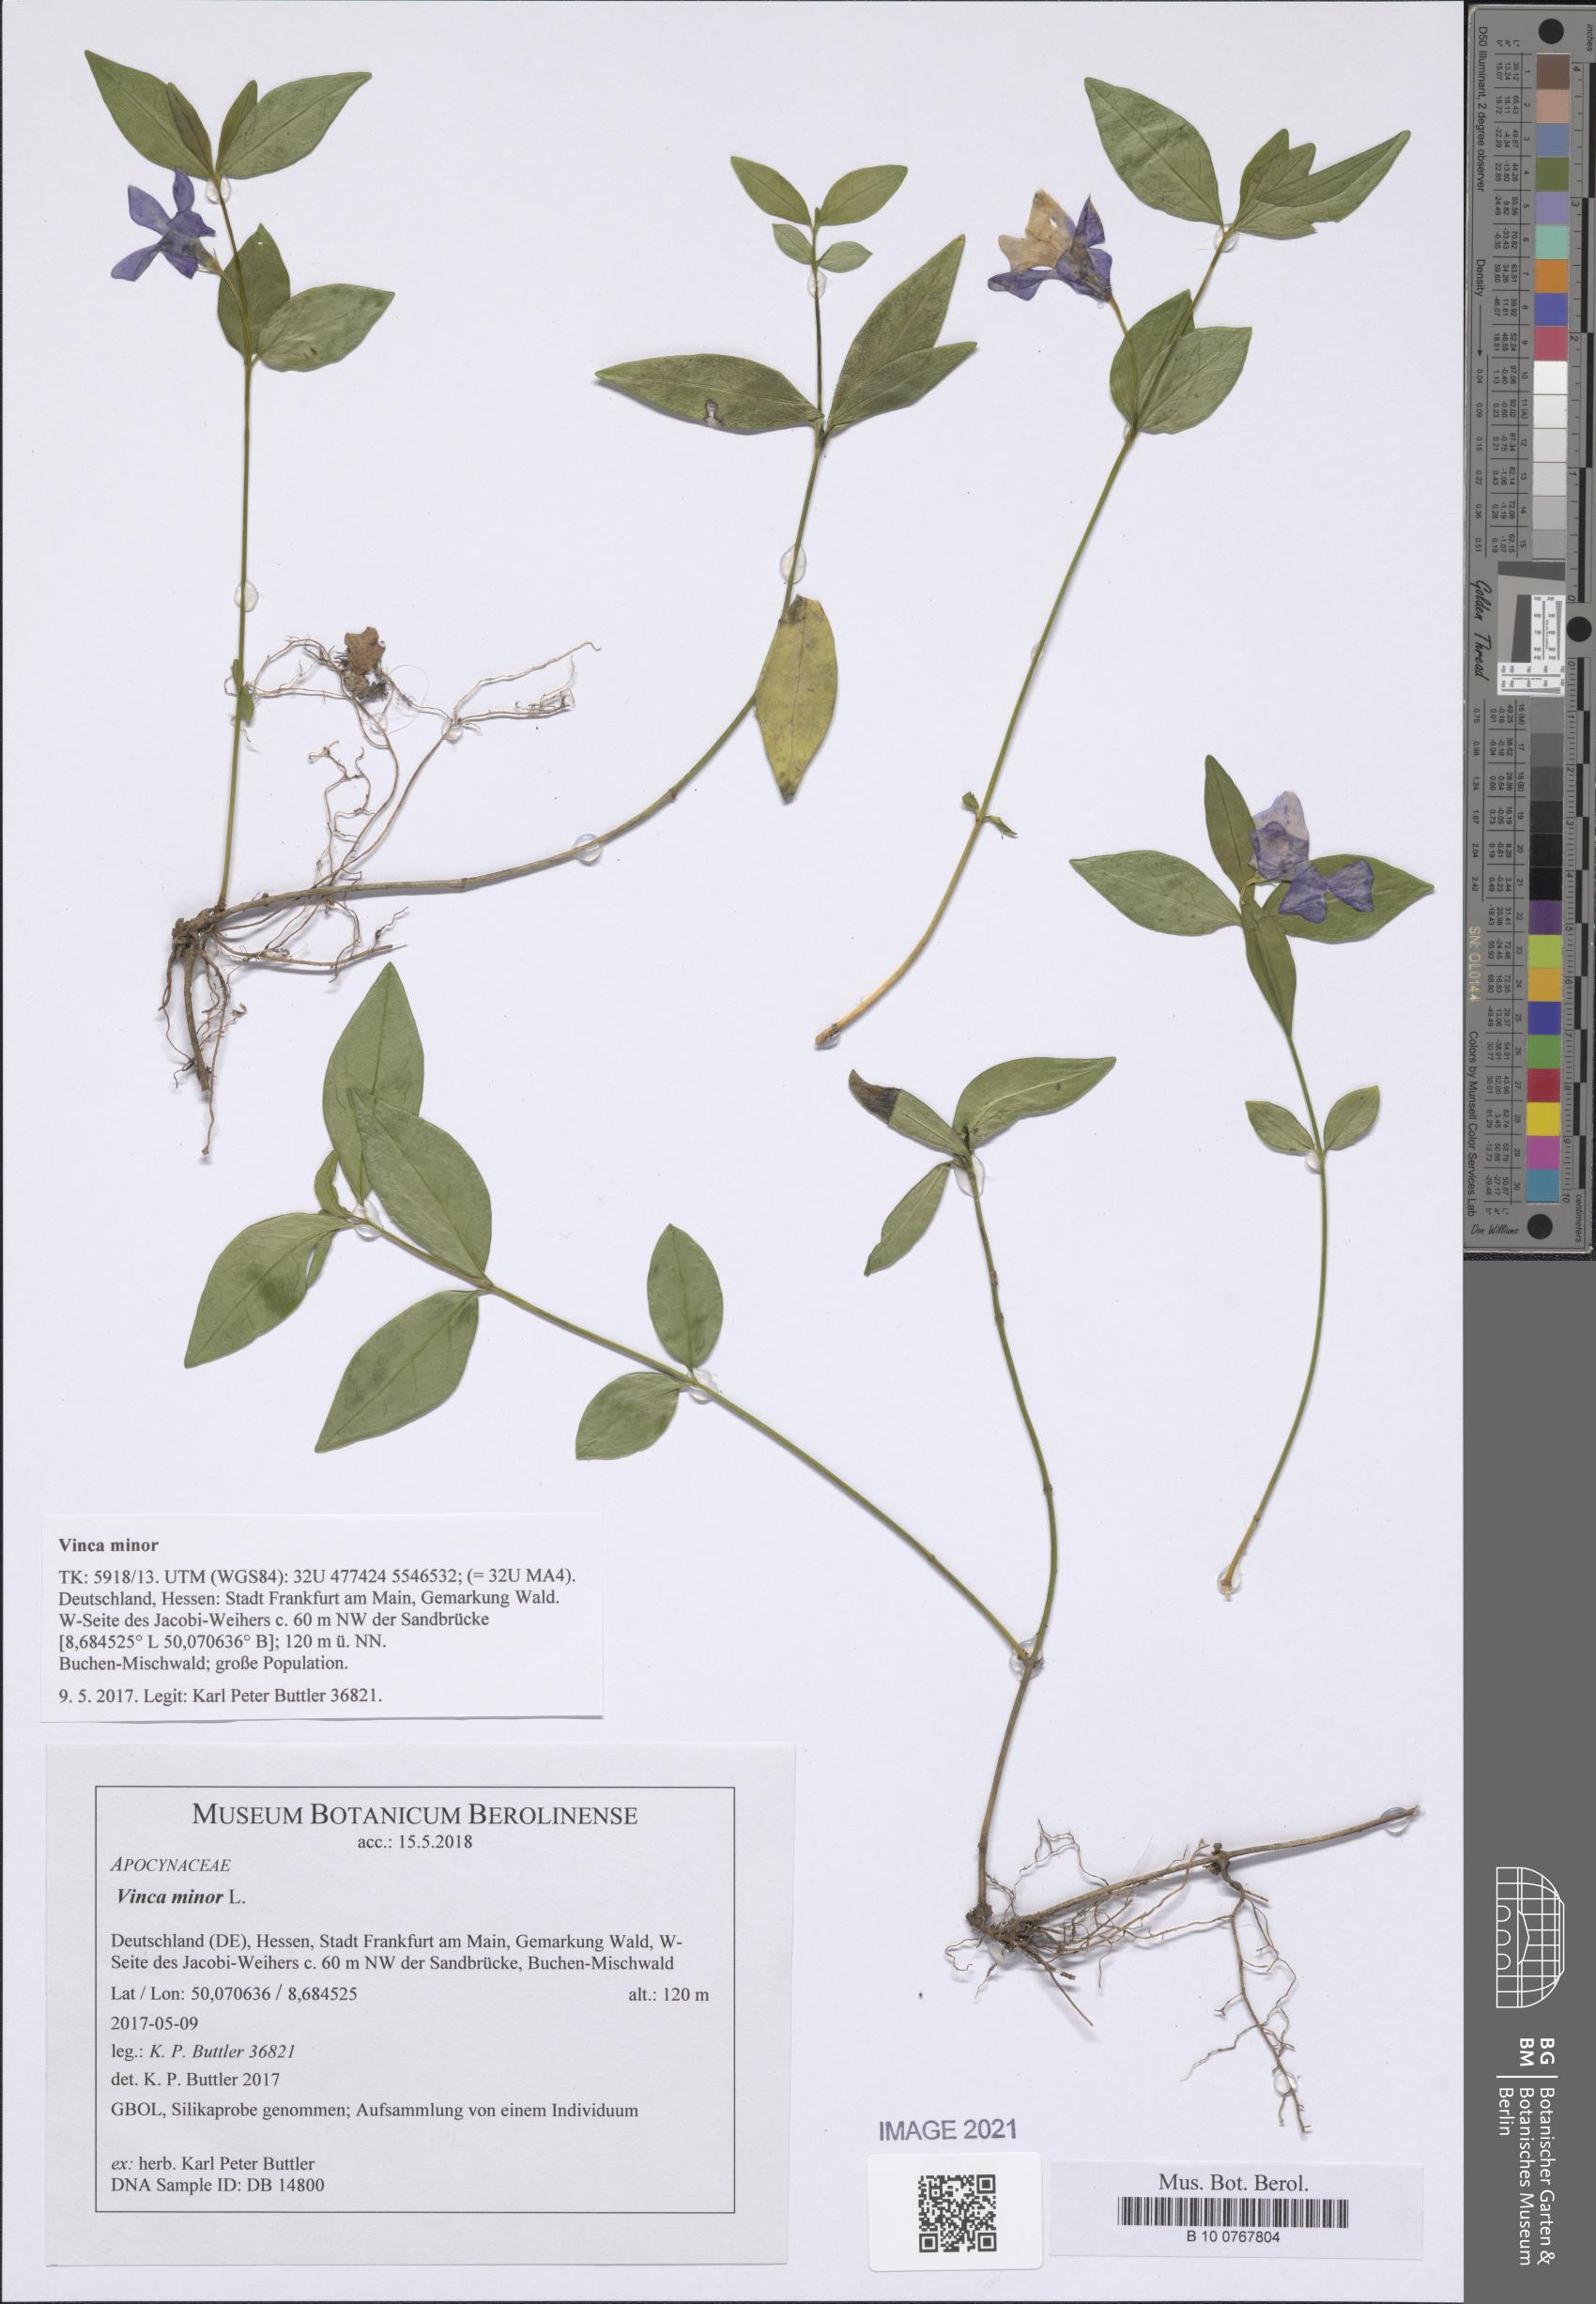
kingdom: Plantae
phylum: Tracheophyta
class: Magnoliopsida
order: Gentianales
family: Apocynaceae
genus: Vinca
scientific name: Vinca minor
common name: Lesser periwinkle
